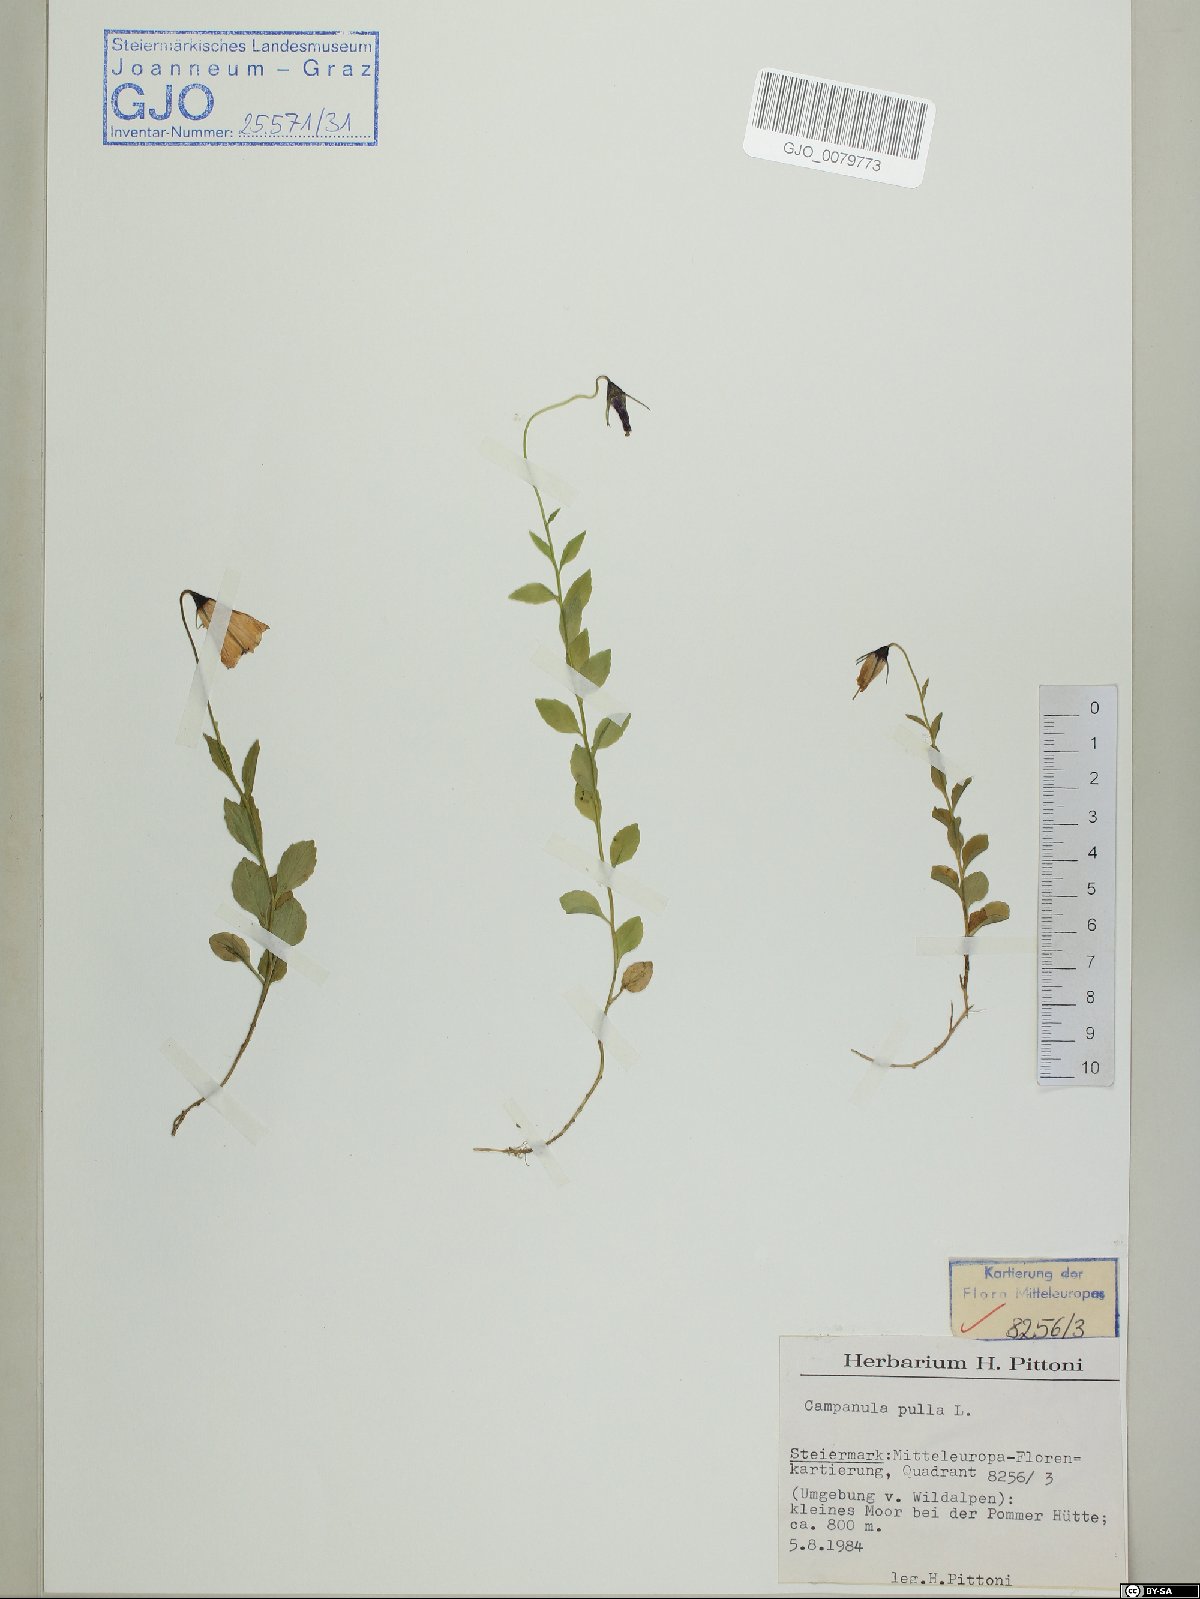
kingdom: Plantae
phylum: Tracheophyta
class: Magnoliopsida
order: Asterales
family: Campanulaceae
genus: Campanula
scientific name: Campanula pulla
